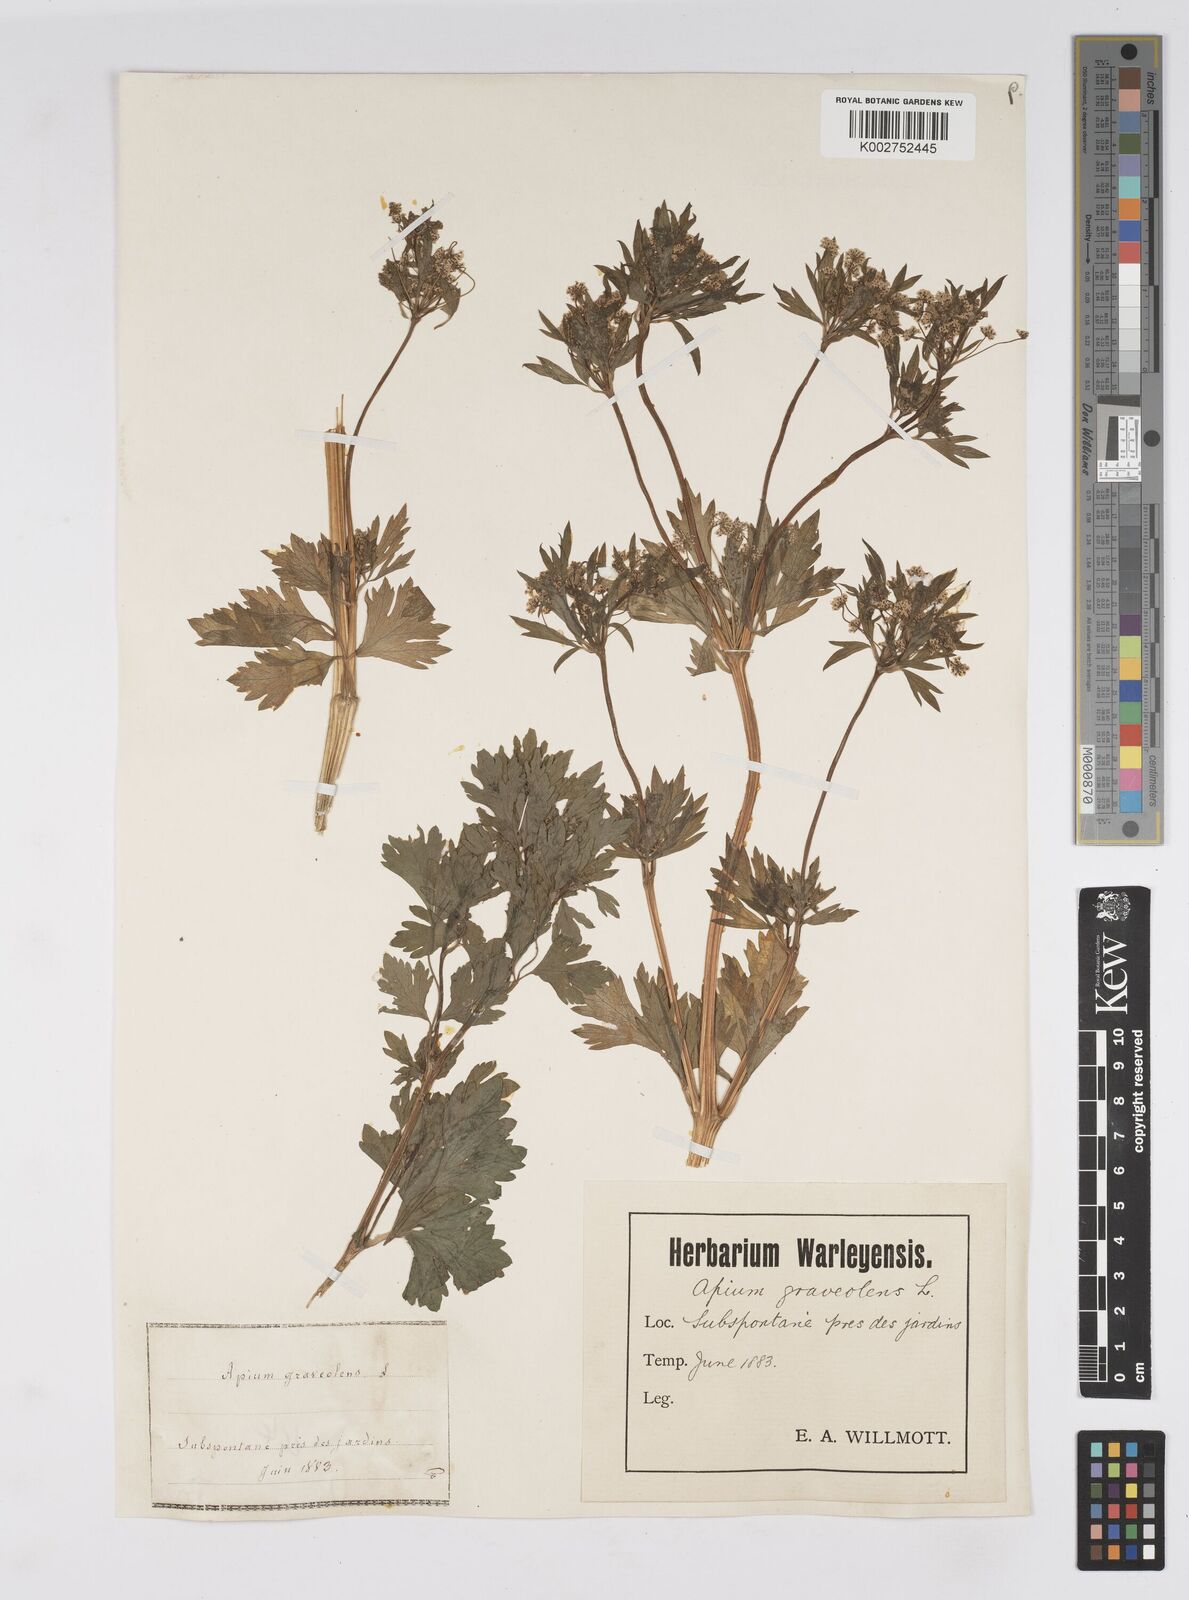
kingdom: Plantae
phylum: Tracheophyta
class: Magnoliopsida
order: Apiales
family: Apiaceae
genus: Apium
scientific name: Apium graveolens
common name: Wild celery
